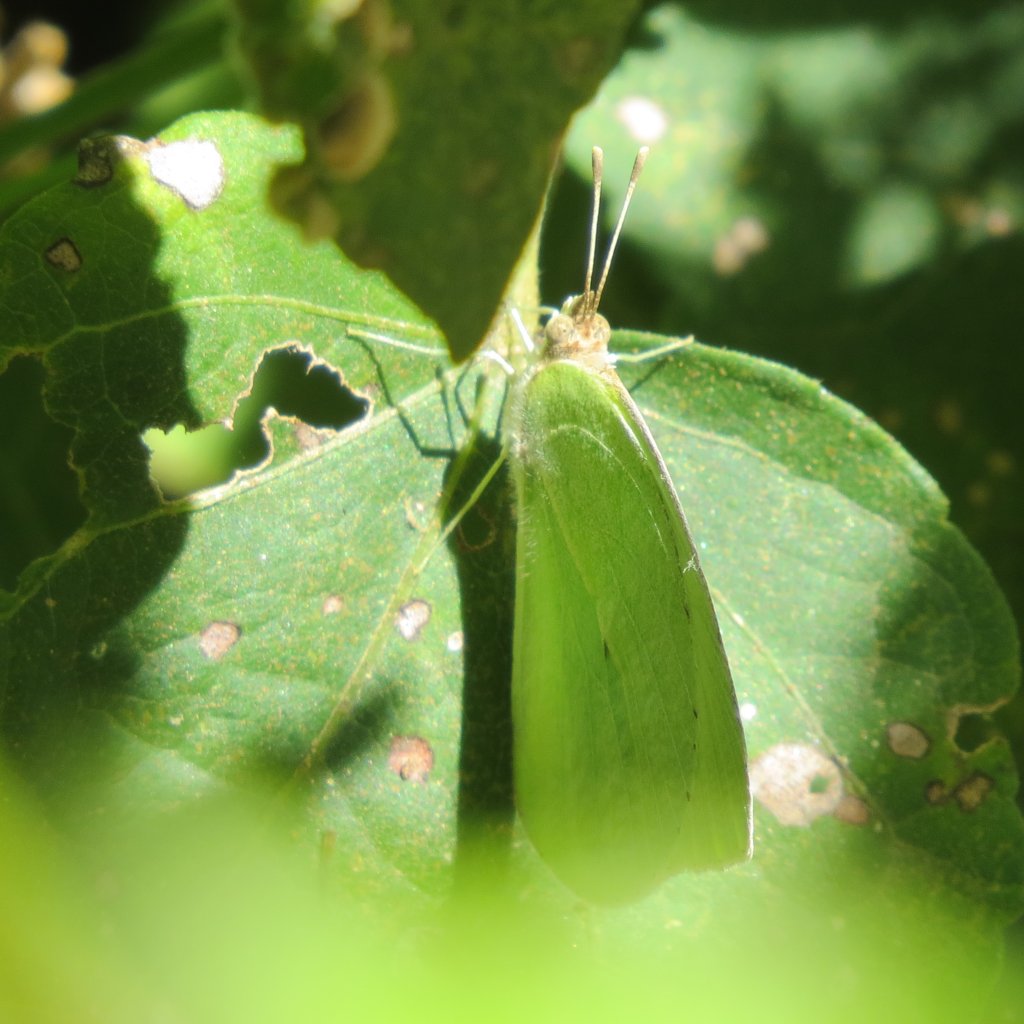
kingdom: Animalia
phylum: Arthropoda
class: Insecta
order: Lepidoptera
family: Pieridae
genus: Kricogonia
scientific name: Kricogonia lyside
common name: Lyside Sulphur
